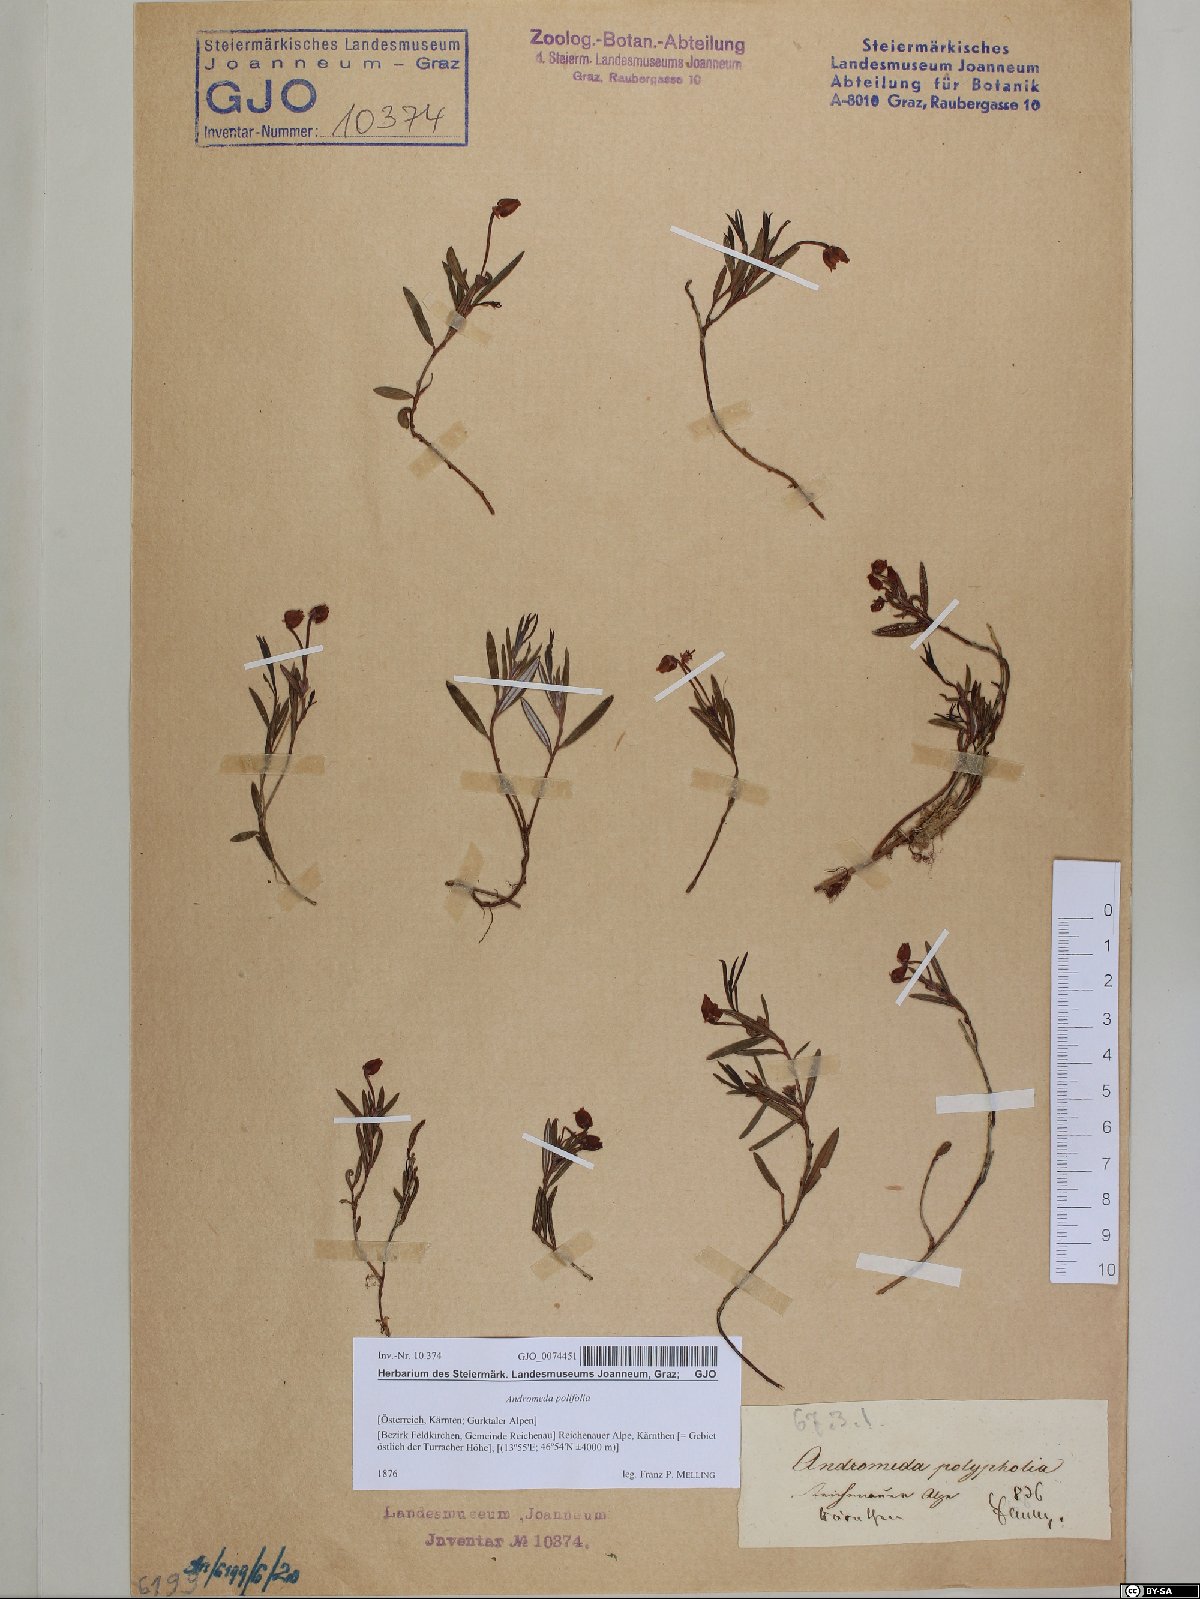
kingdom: Plantae
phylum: Tracheophyta
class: Magnoliopsida
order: Ericales
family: Ericaceae
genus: Andromeda
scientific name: Andromeda polifolia
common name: Bog-rosemary
